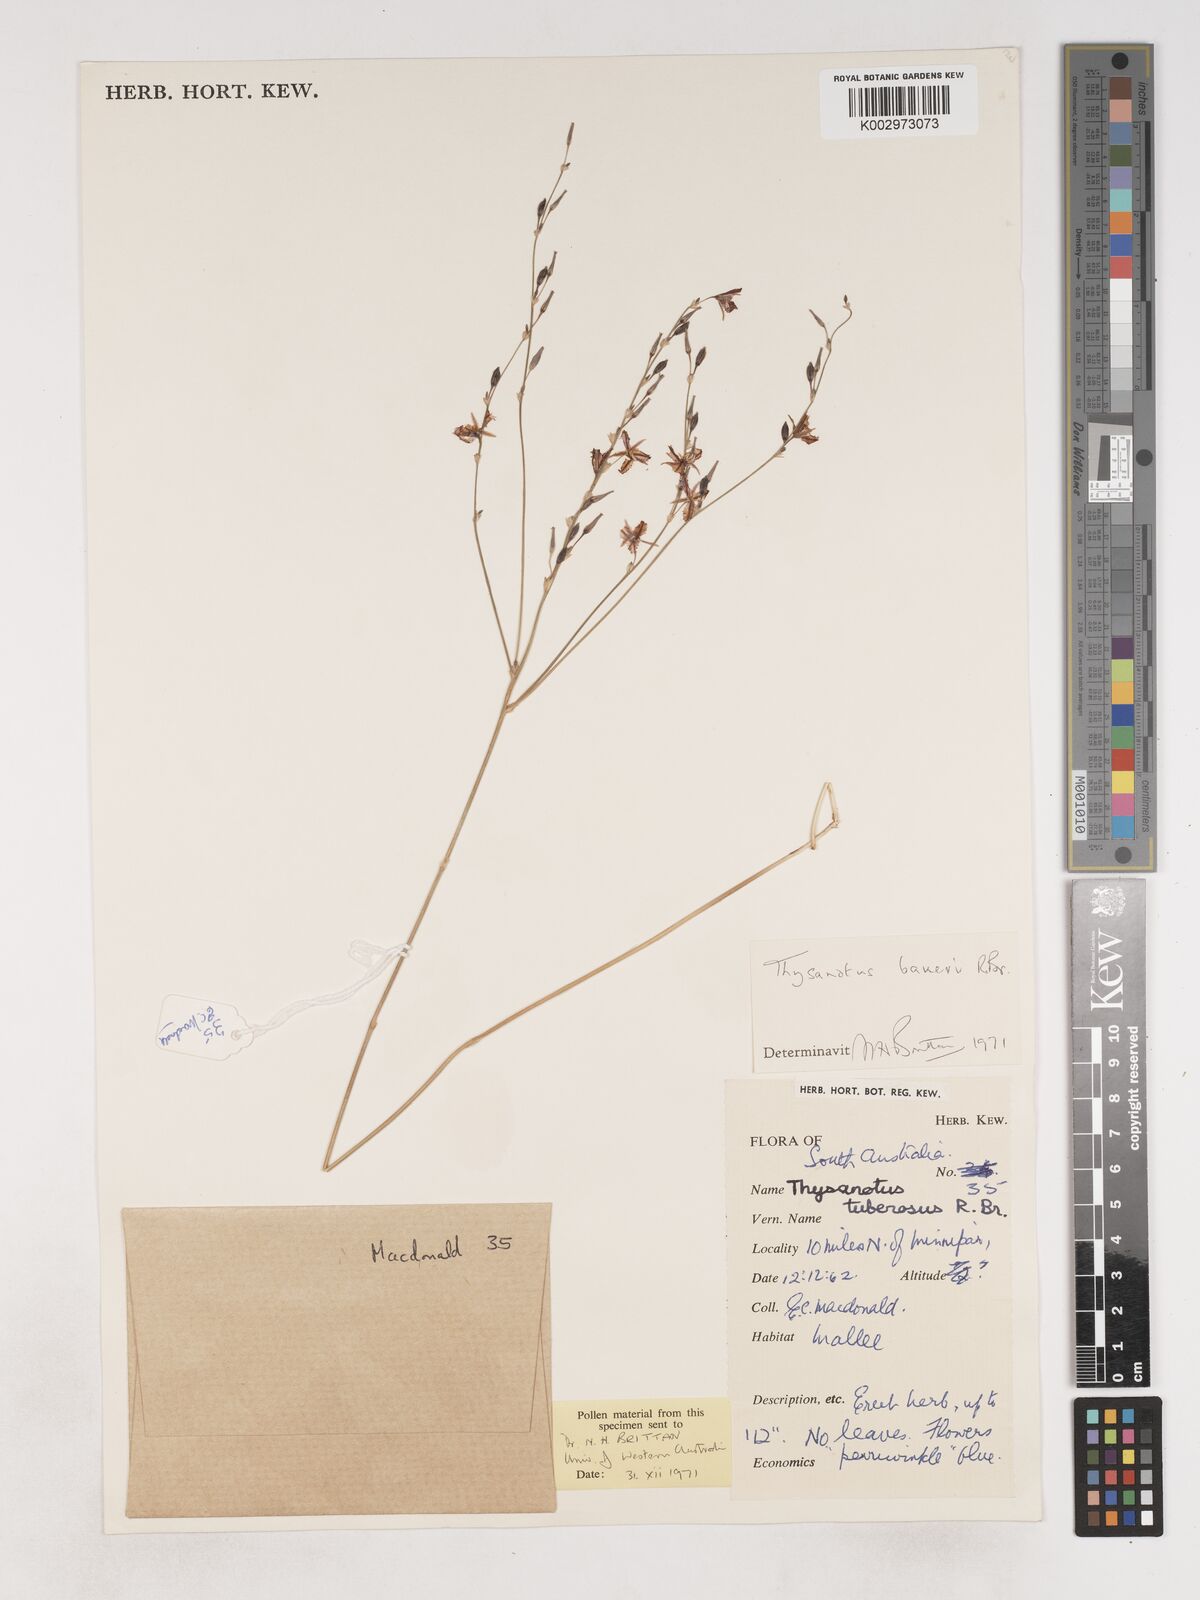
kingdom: Plantae
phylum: Tracheophyta
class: Liliopsida
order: Asparagales
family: Asparagaceae
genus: Thysanotus
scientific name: Thysanotus baueri
